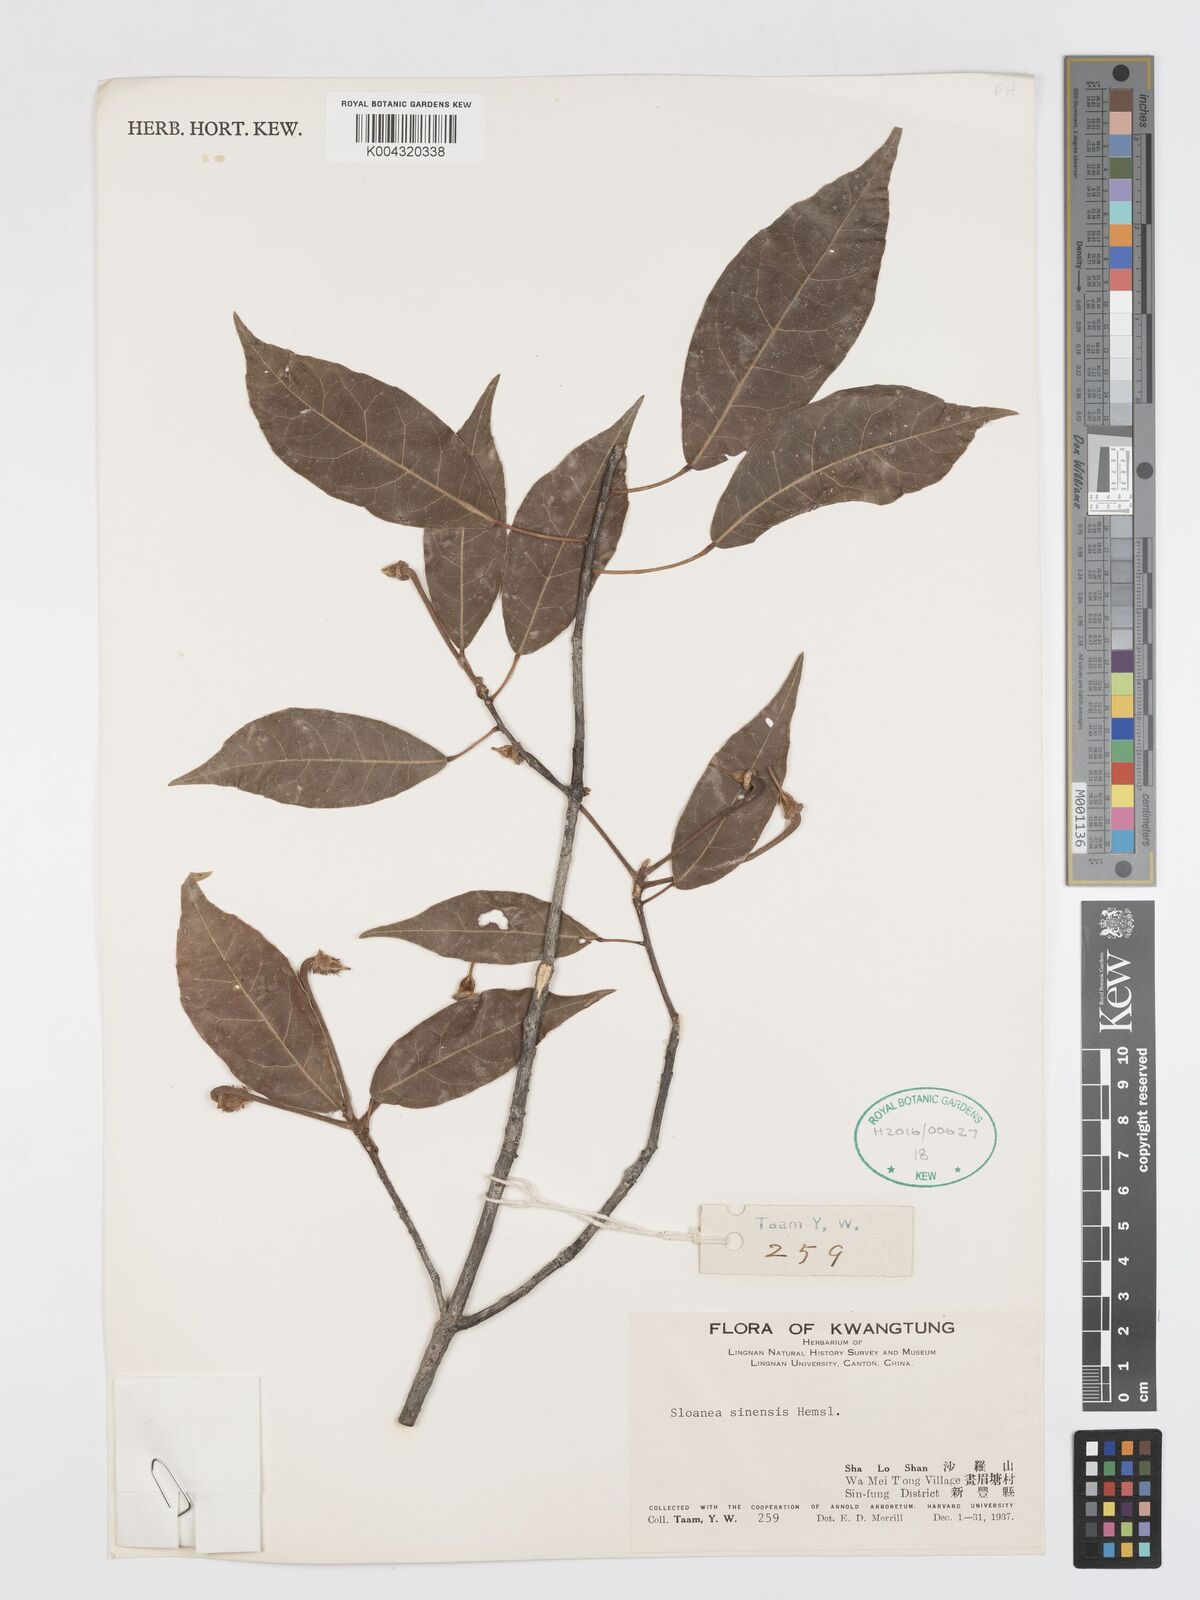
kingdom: Plantae
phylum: Tracheophyta
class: Magnoliopsida
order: Oxalidales
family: Elaeocarpaceae
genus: Sloanea
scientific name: Sloanea sinensis
